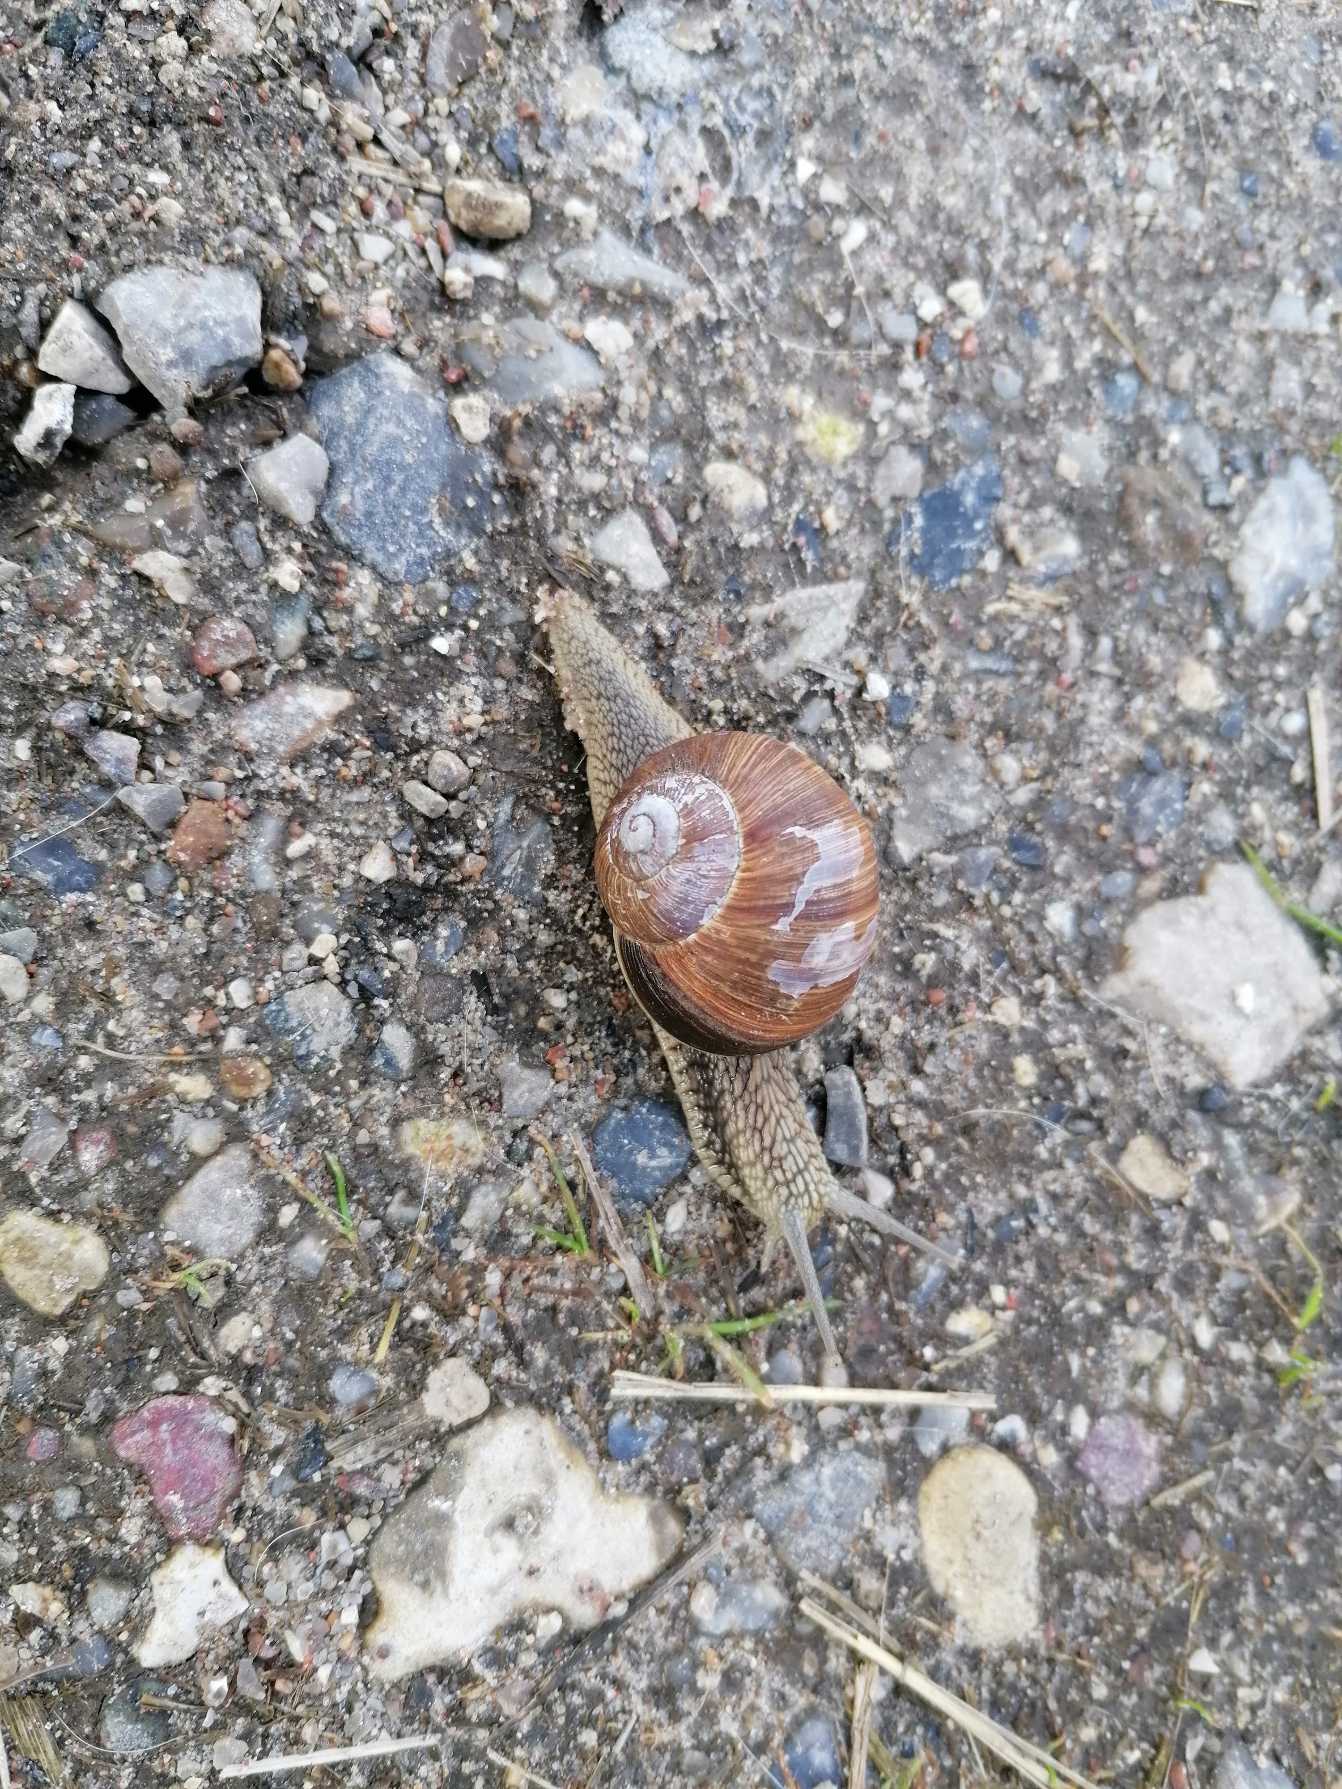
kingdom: Animalia
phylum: Mollusca
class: Gastropoda
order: Stylommatophora
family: Helicidae
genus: Helix
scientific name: Helix pomatia
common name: Vinbjergsnegl
